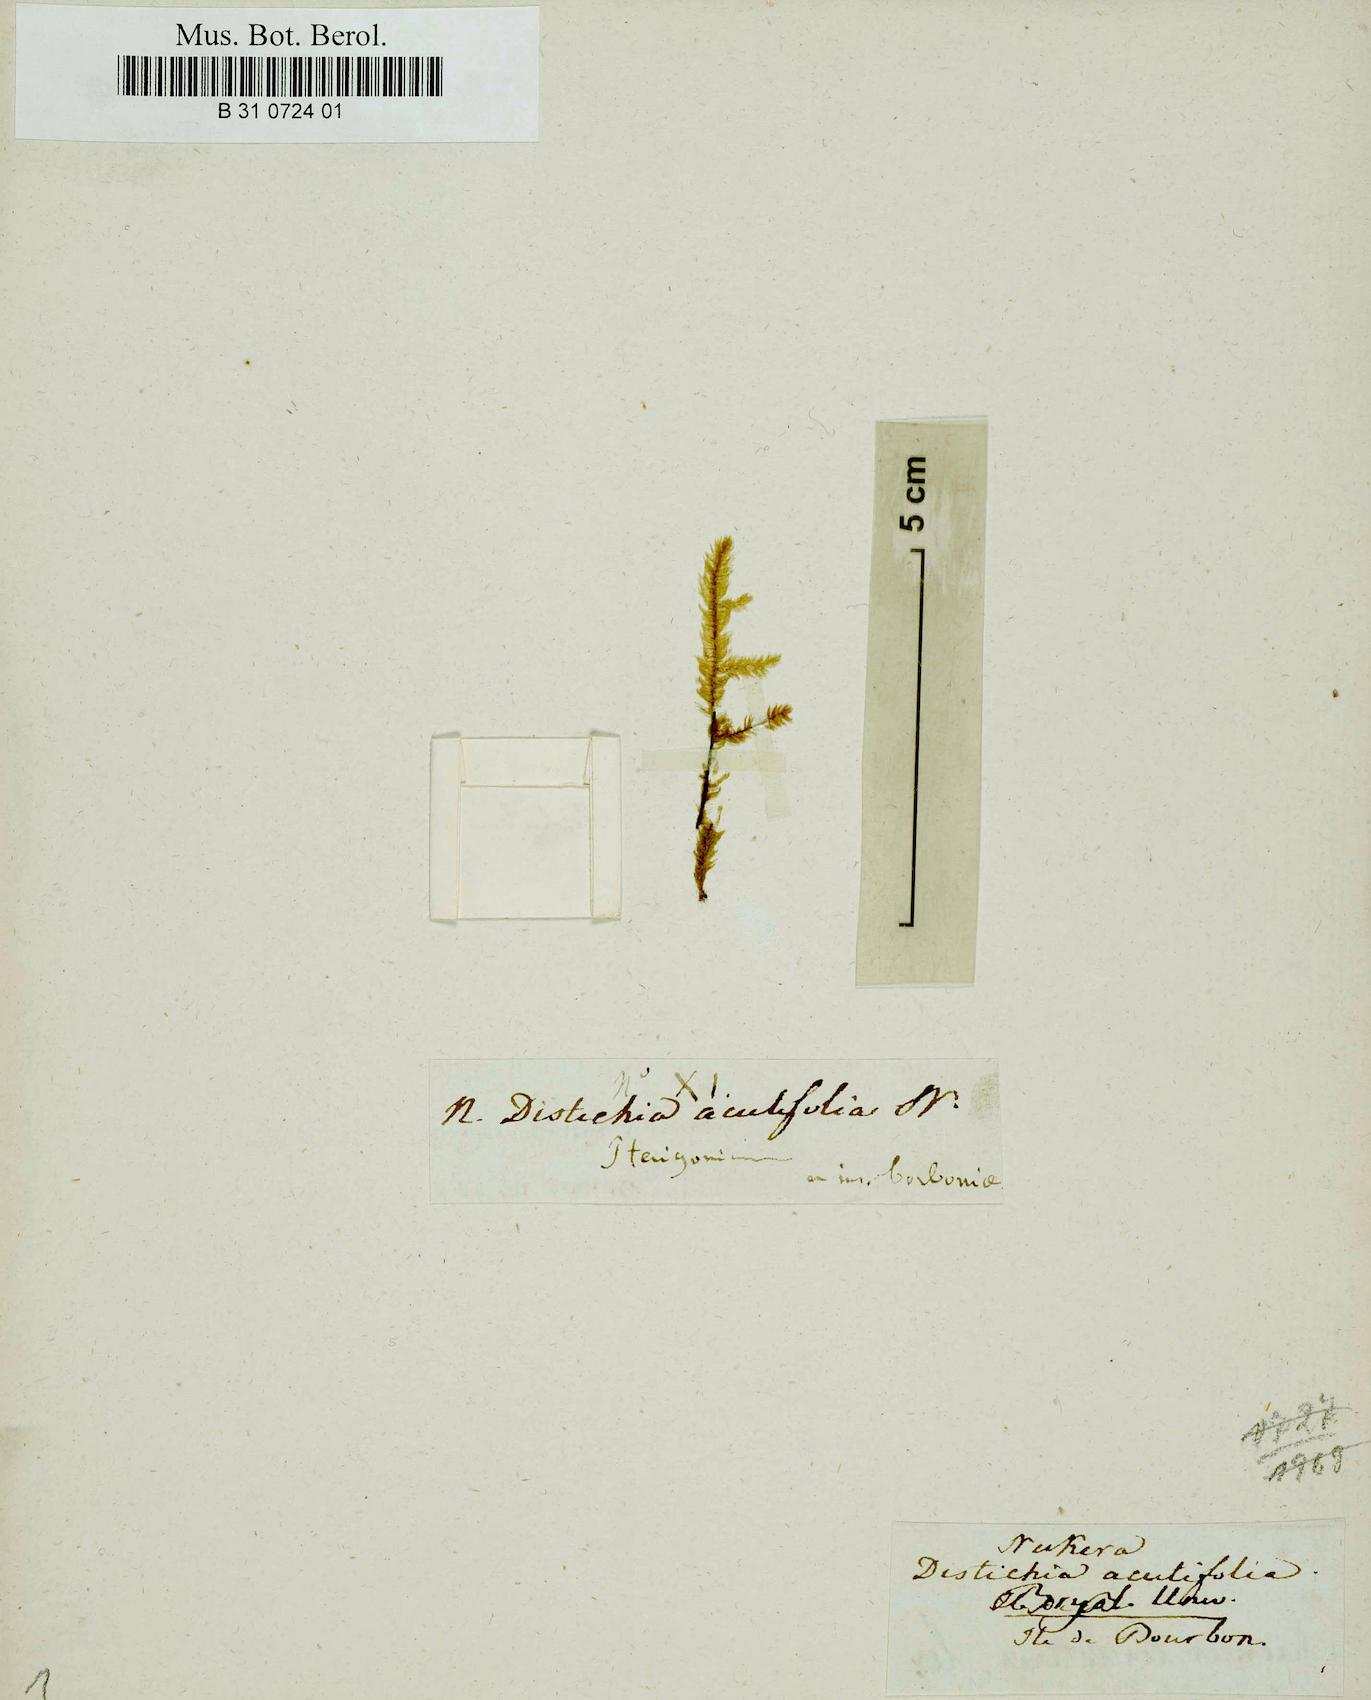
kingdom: Plantae
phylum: Bryophyta
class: Bryopsida
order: Hypnales
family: Pterobryaceae
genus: Calyptothecium
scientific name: Calyptothecium duplicatum
